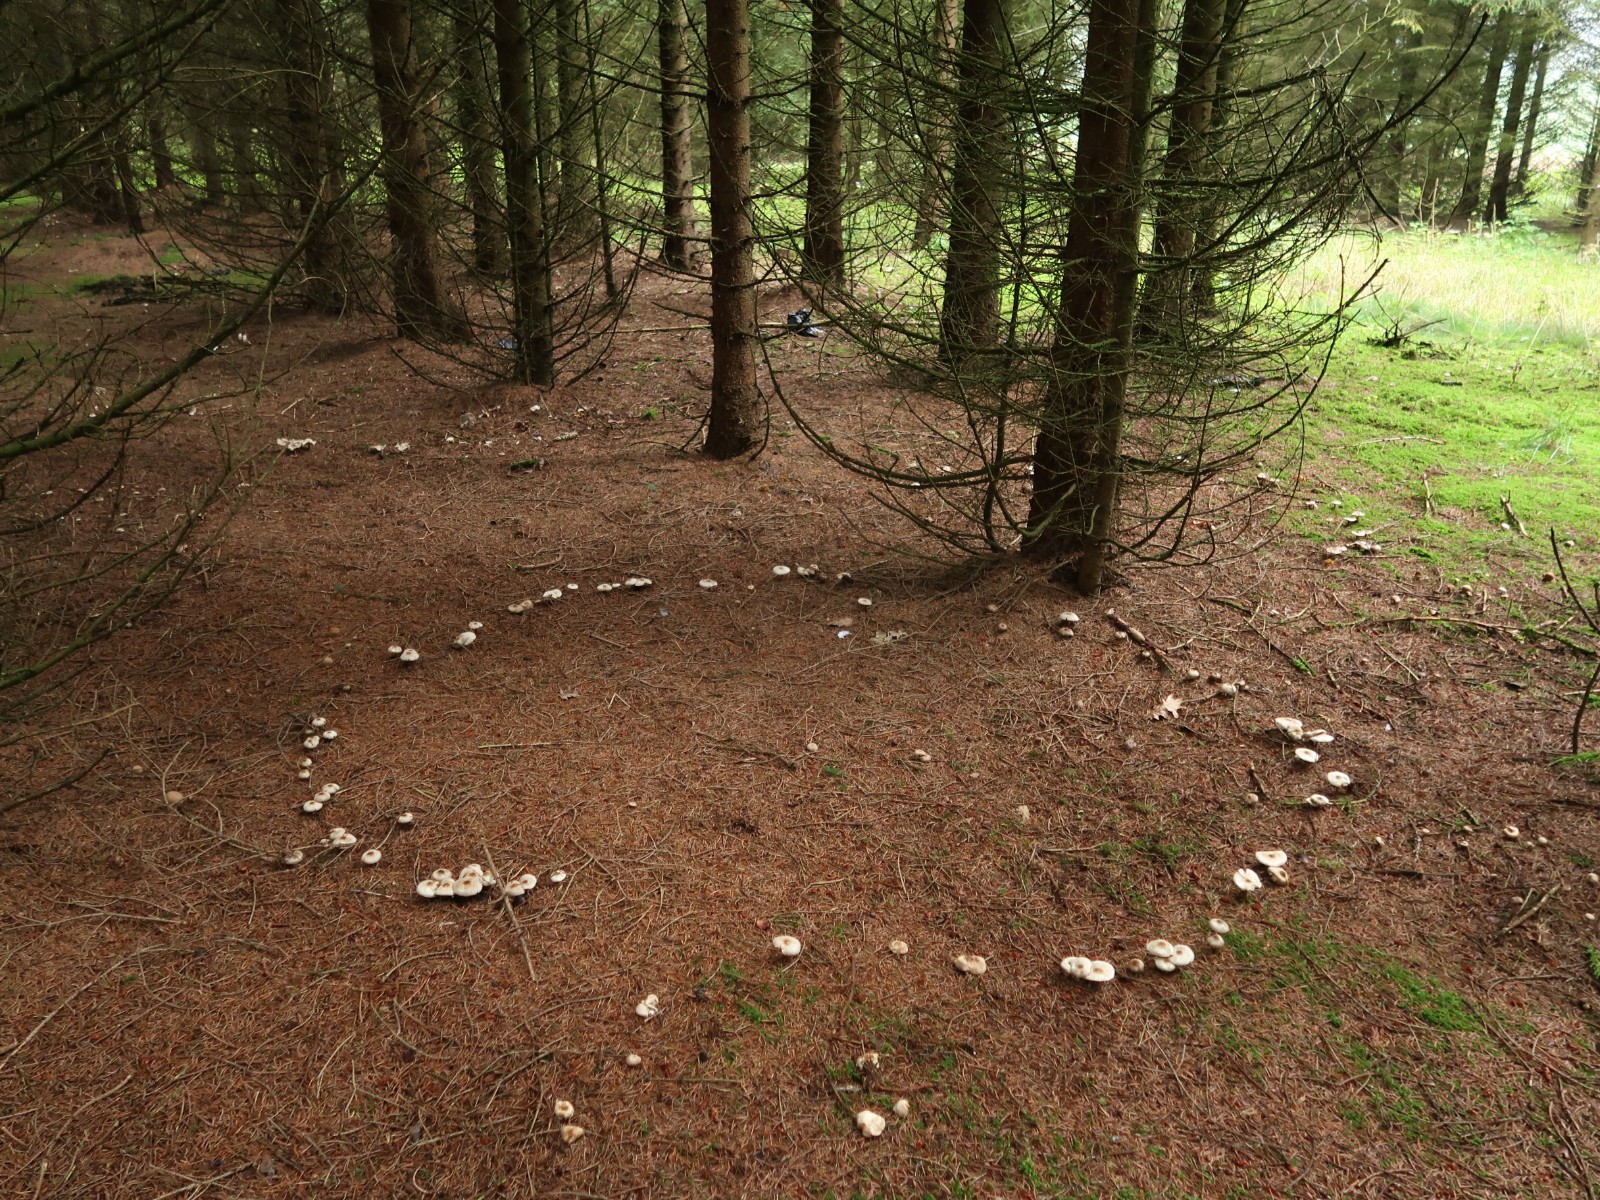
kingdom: Fungi
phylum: Basidiomycota
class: Agaricomycetes
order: Agaricales
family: Omphalotaceae
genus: Rhodocollybia
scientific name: Rhodocollybia asema
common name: horngrå fladhat
